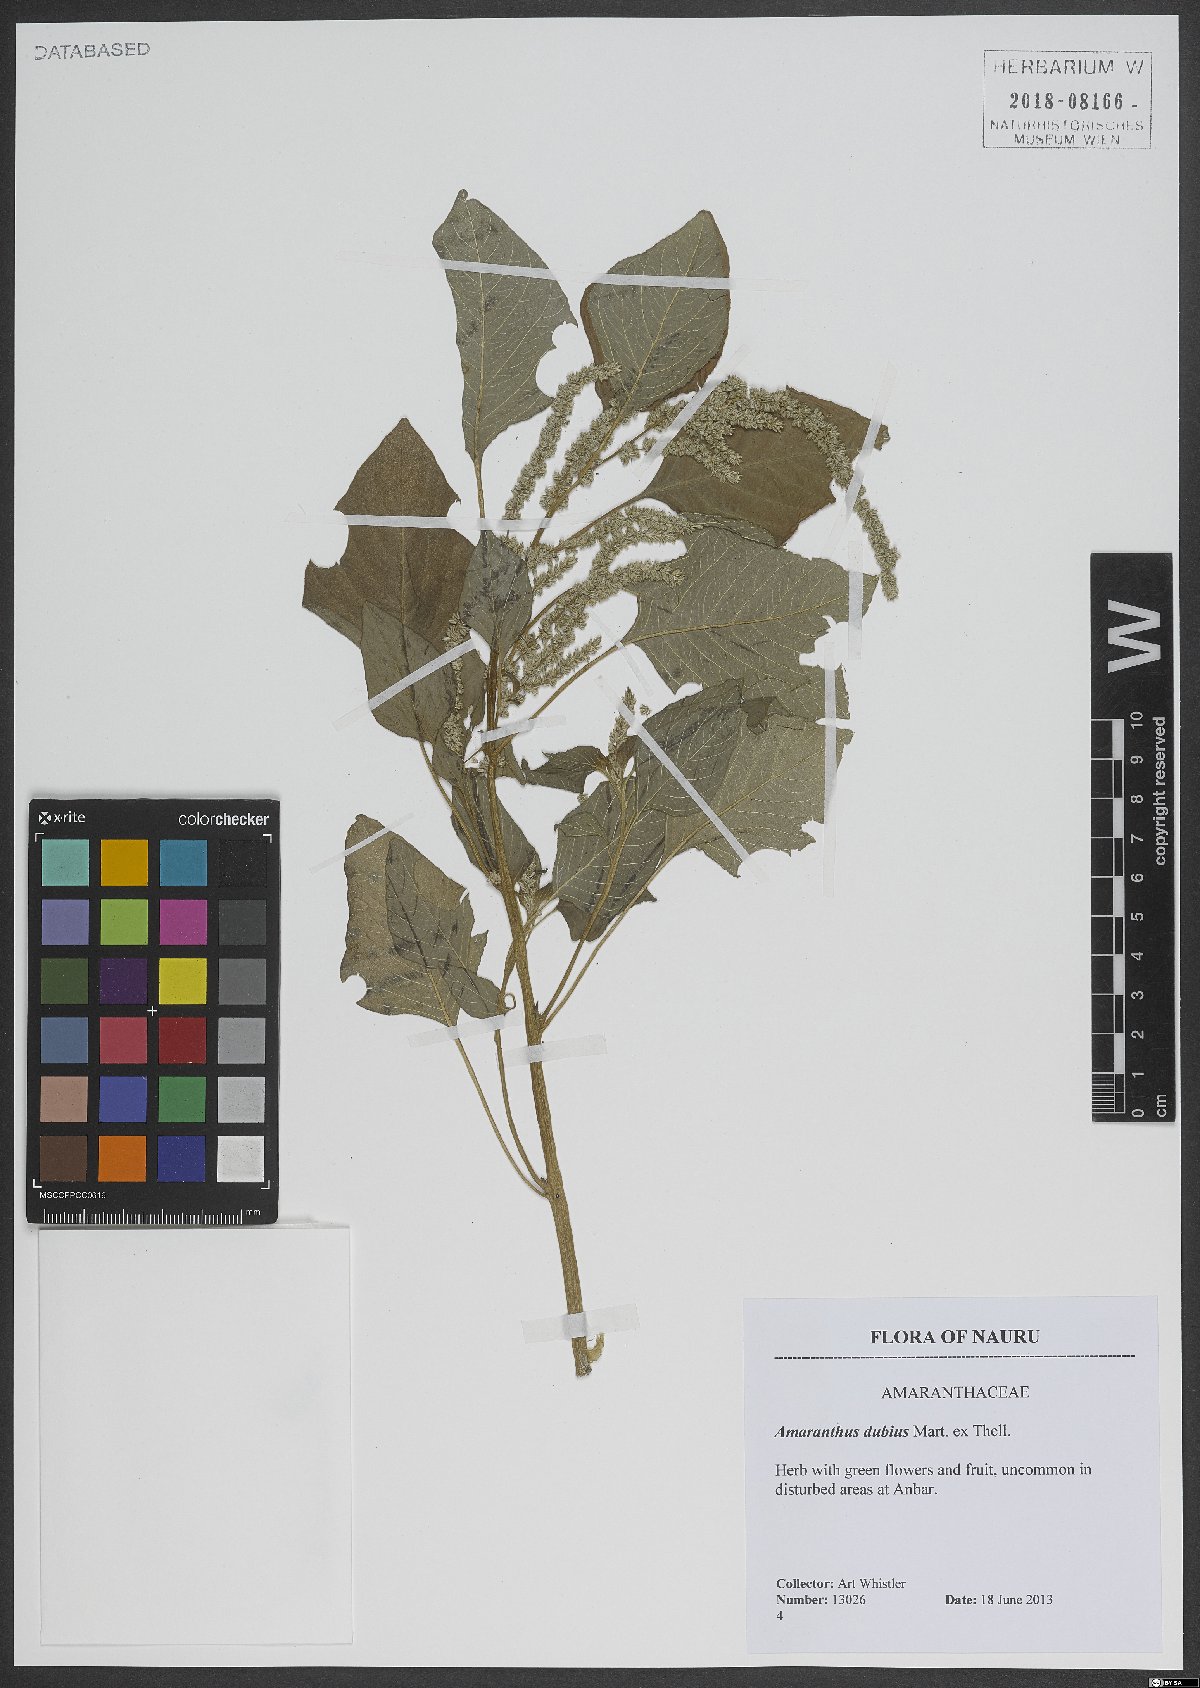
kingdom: Plantae
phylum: Tracheophyta
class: Magnoliopsida
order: Caryophyllales
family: Amaranthaceae
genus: Amaranthus
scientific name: Amaranthus dubius
